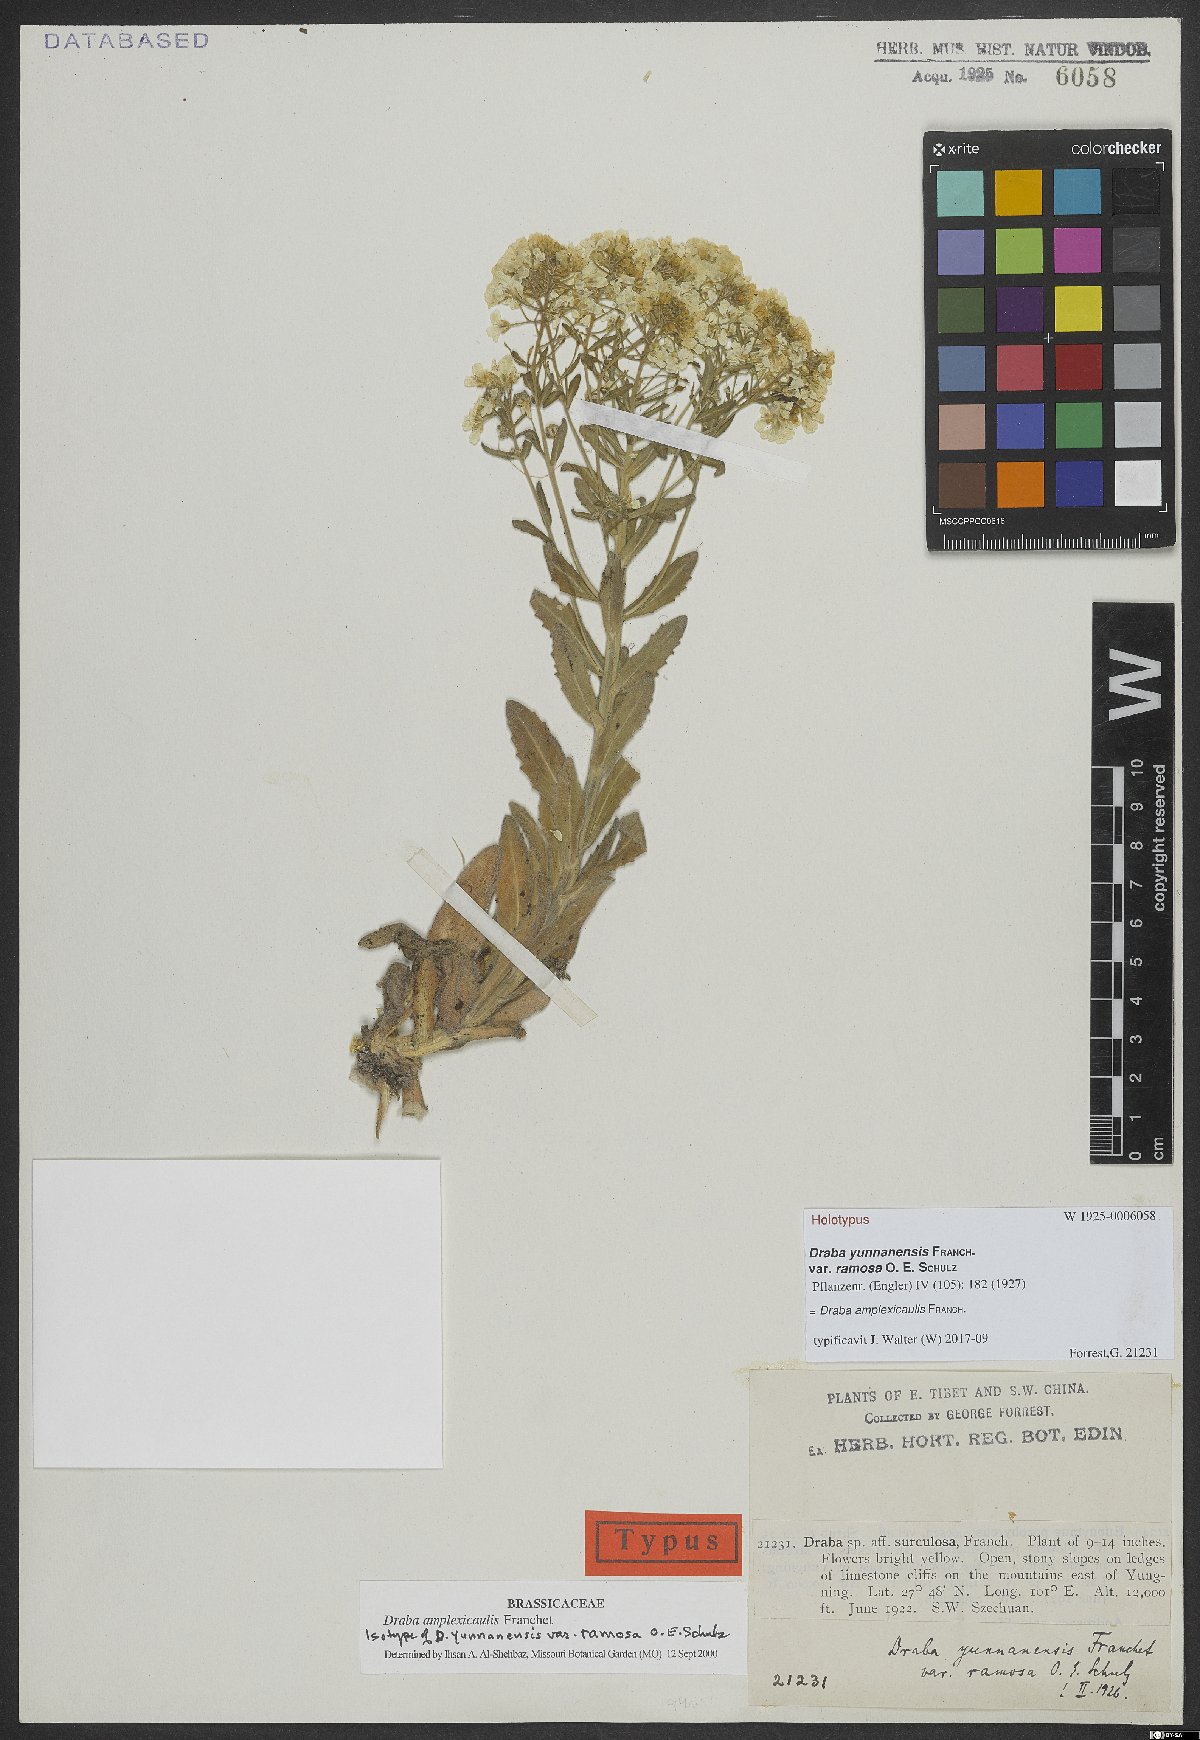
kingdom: Plantae
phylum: Tracheophyta
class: Magnoliopsida
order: Brassicales
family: Brassicaceae
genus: Draba
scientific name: Draba amplexicaulis
